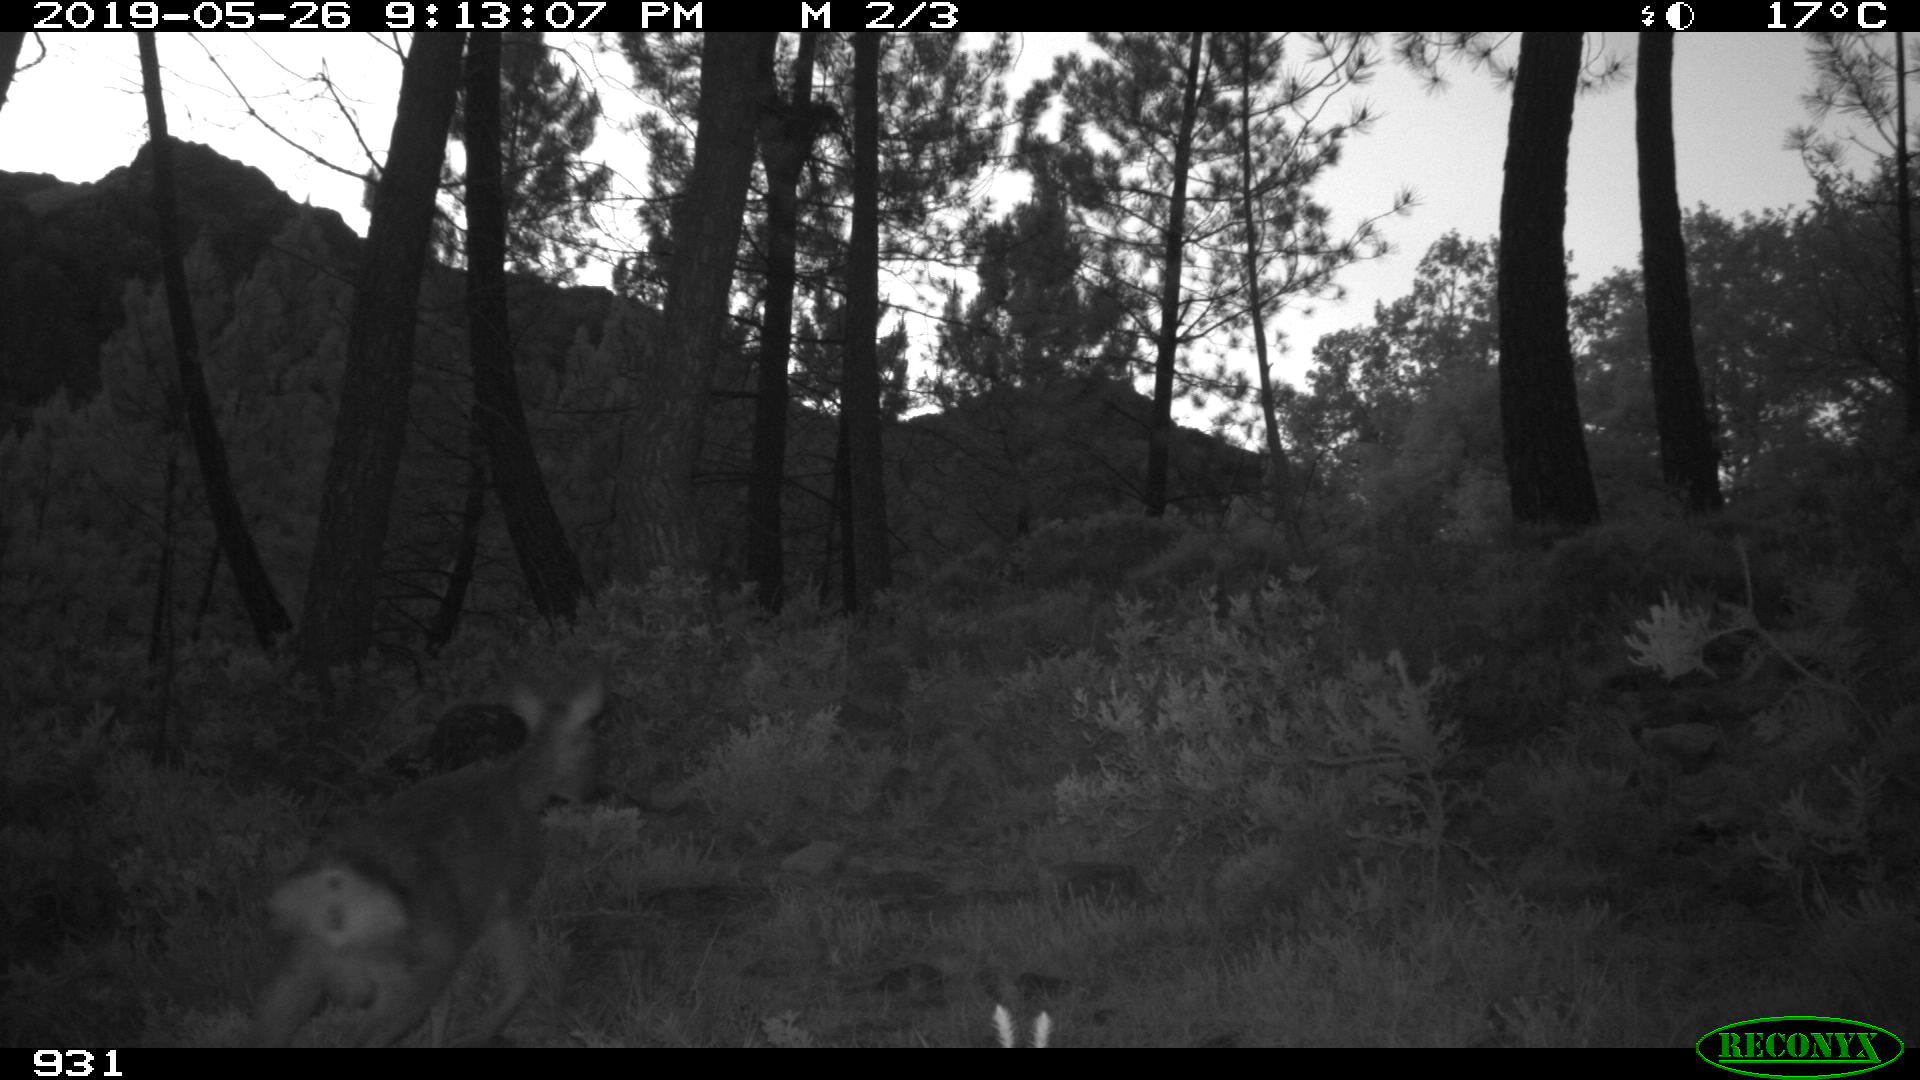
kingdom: Animalia
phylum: Chordata
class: Mammalia
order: Artiodactyla
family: Cervidae
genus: Capreolus
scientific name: Capreolus capreolus
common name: Western roe deer
